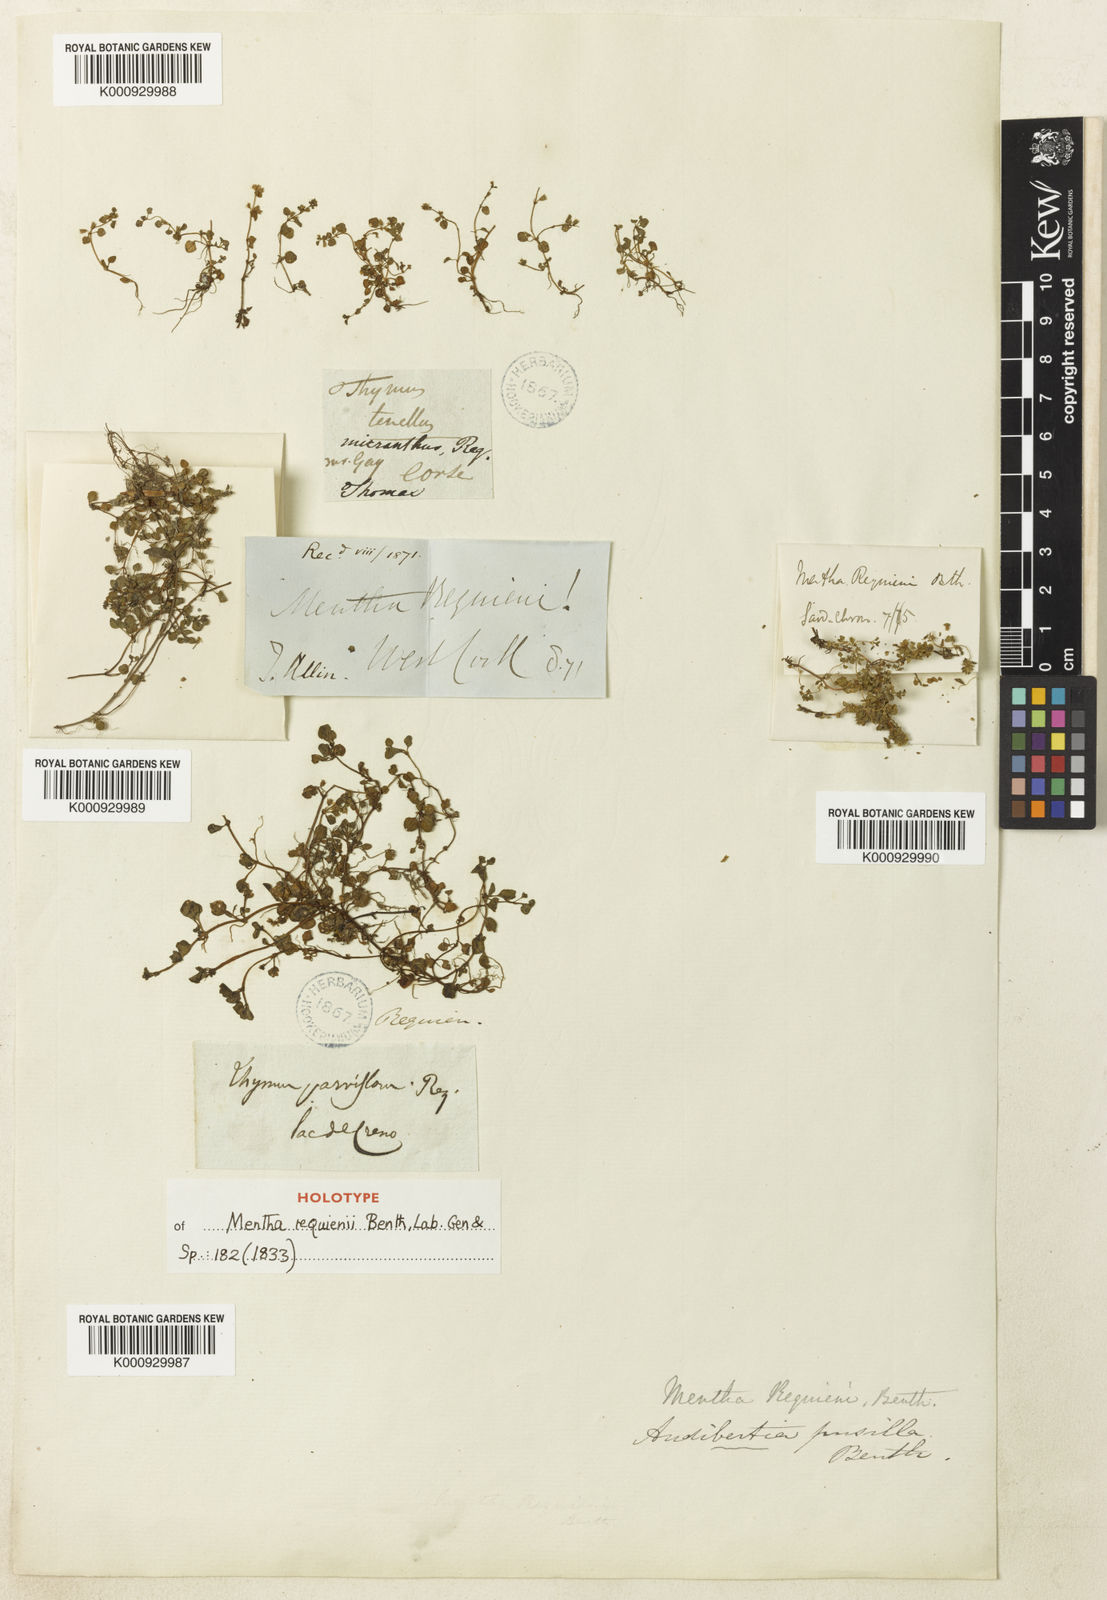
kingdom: Plantae
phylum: Tracheophyta
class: Magnoliopsida
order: Lamiales
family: Lamiaceae
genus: Mentha
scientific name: Mentha requienii
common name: Corsican mint
